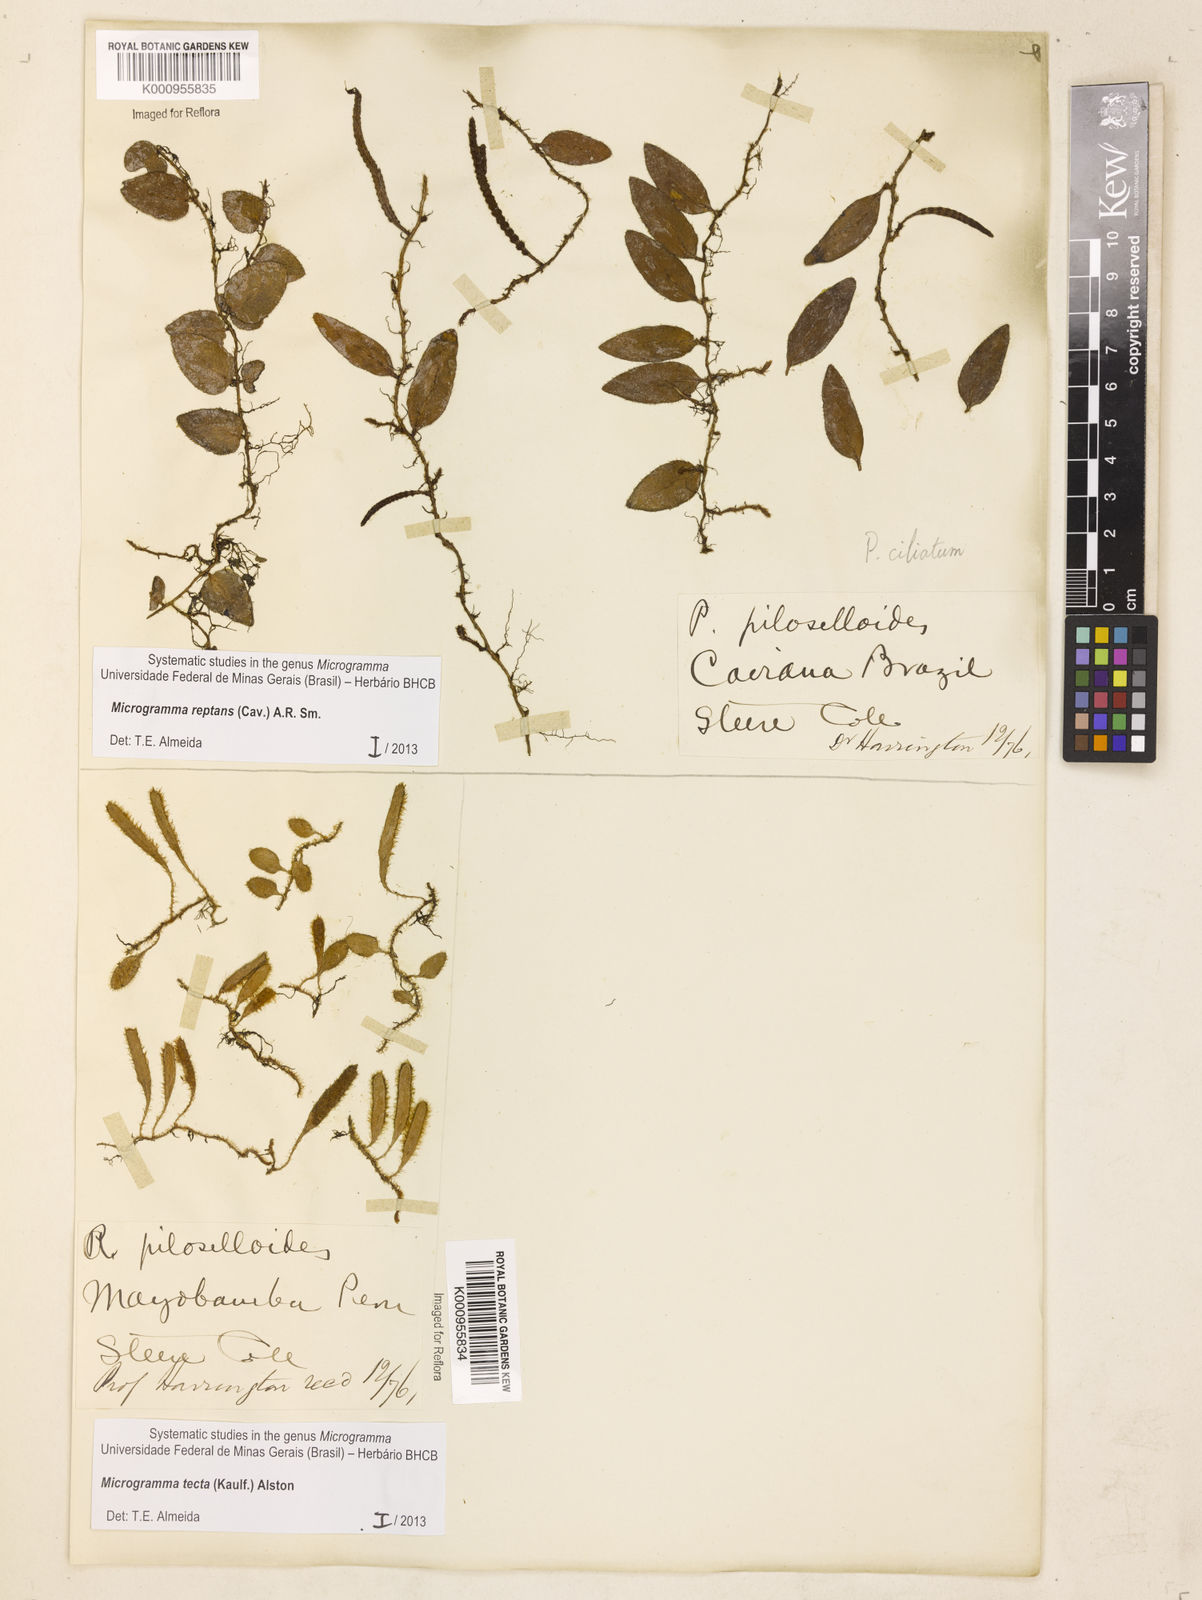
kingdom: Plantae
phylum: Tracheophyta
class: Polypodiopsida
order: Polypodiales
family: Polypodiaceae
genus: Microgramma
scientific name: Microgramma tecta
